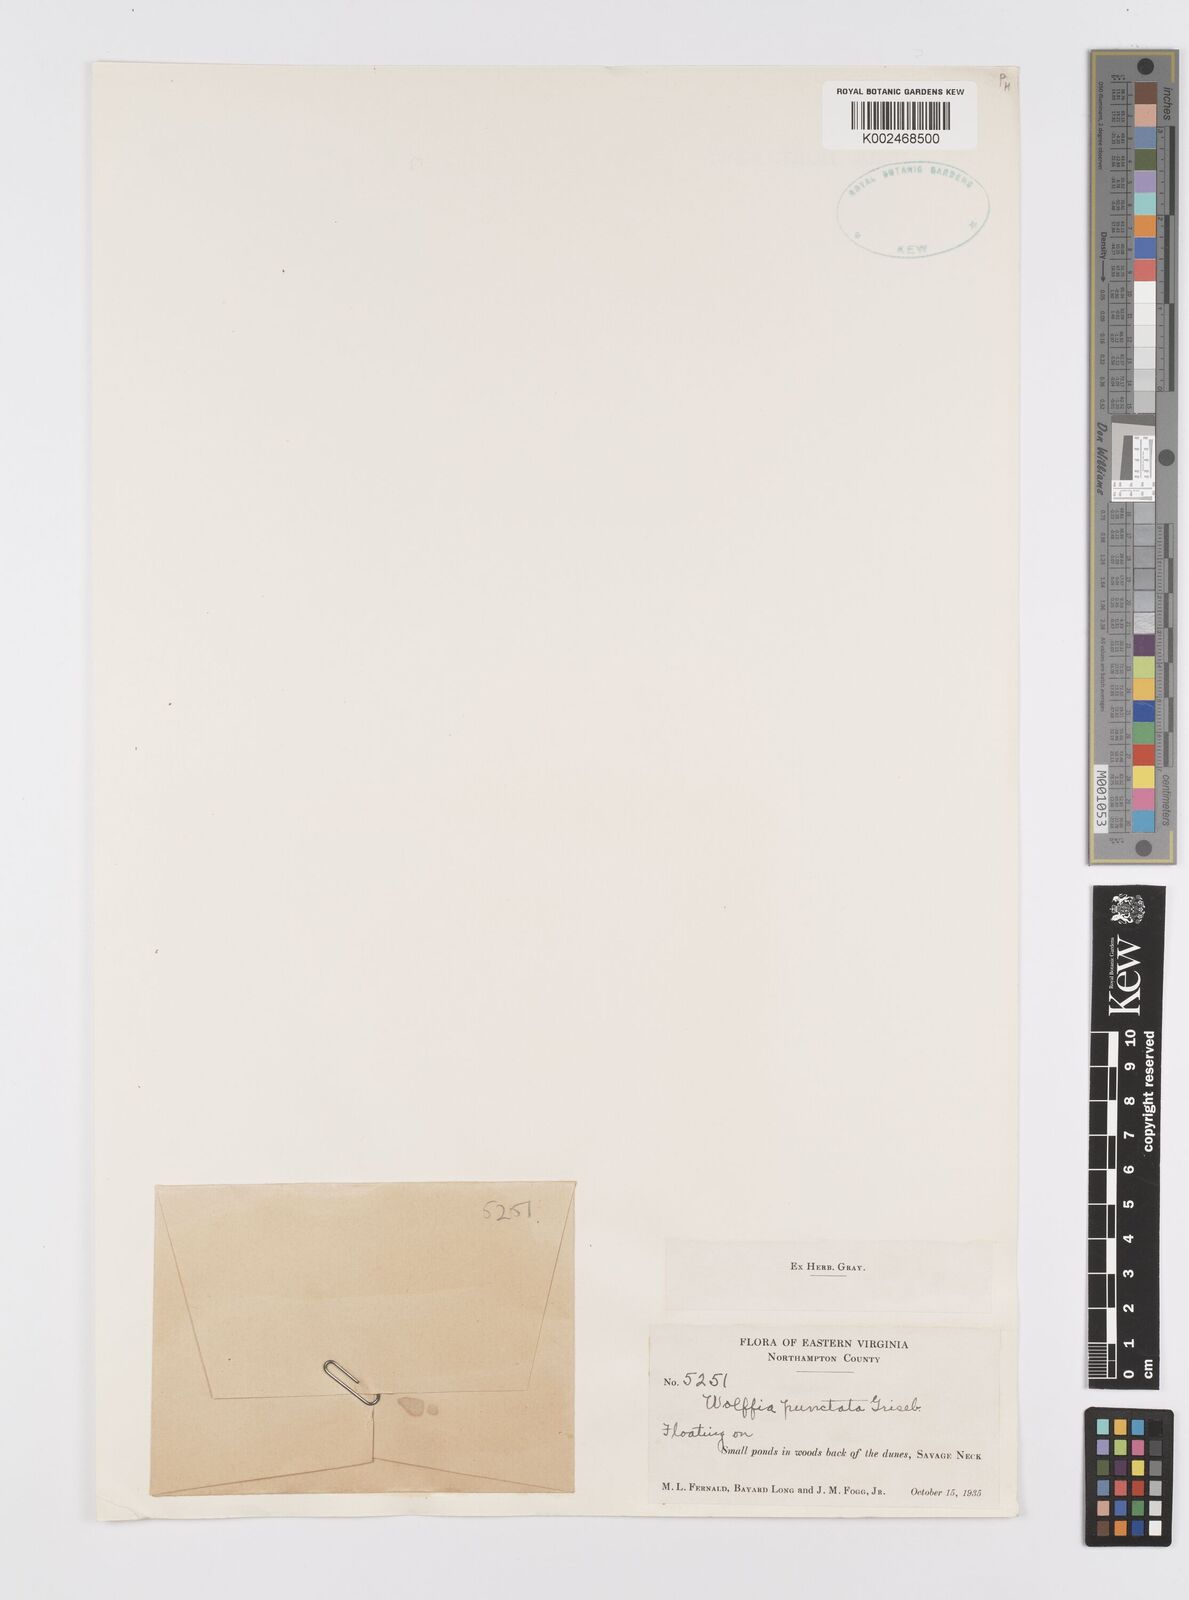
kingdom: Plantae
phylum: Tracheophyta
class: Liliopsida
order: Alismatales
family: Araceae
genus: Wolffia
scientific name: Wolffia brasiliensis
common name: Brazilian watermeal
